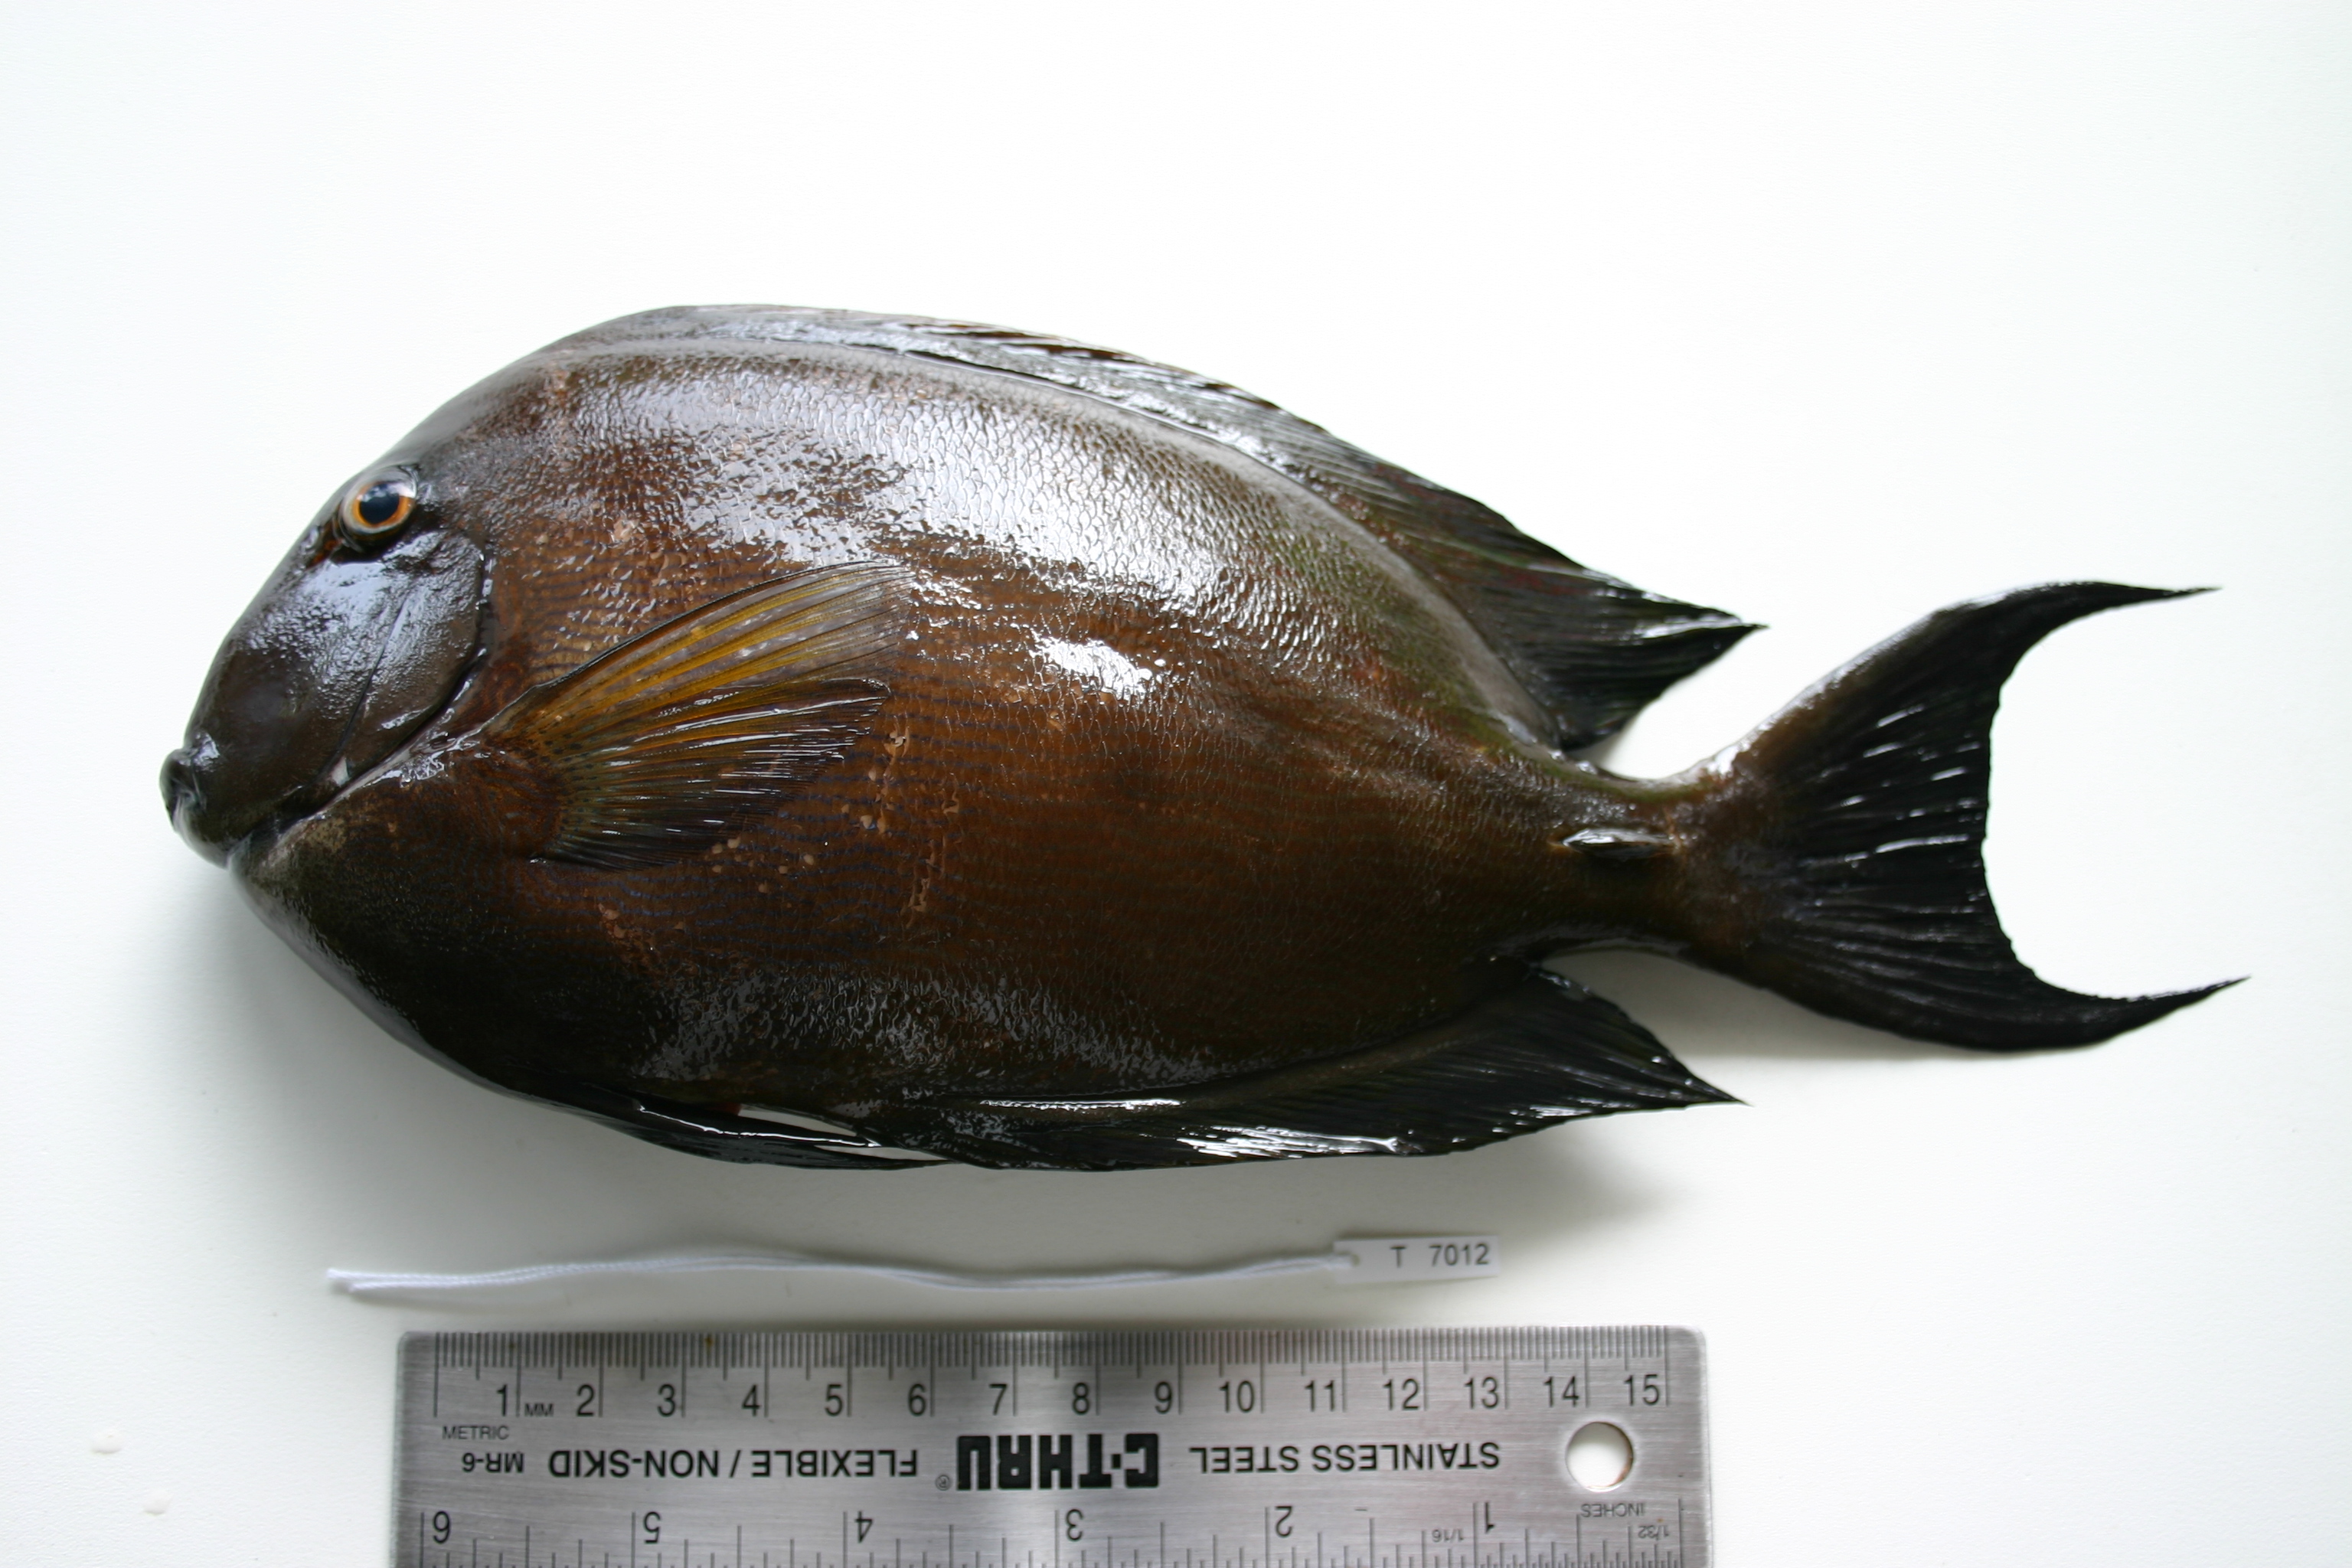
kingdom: Animalia
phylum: Chordata
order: Perciformes
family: Acanthuridae
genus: Ctenochaetus
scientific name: Ctenochaetus striatus
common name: Bristle-toothed surgeonfish
